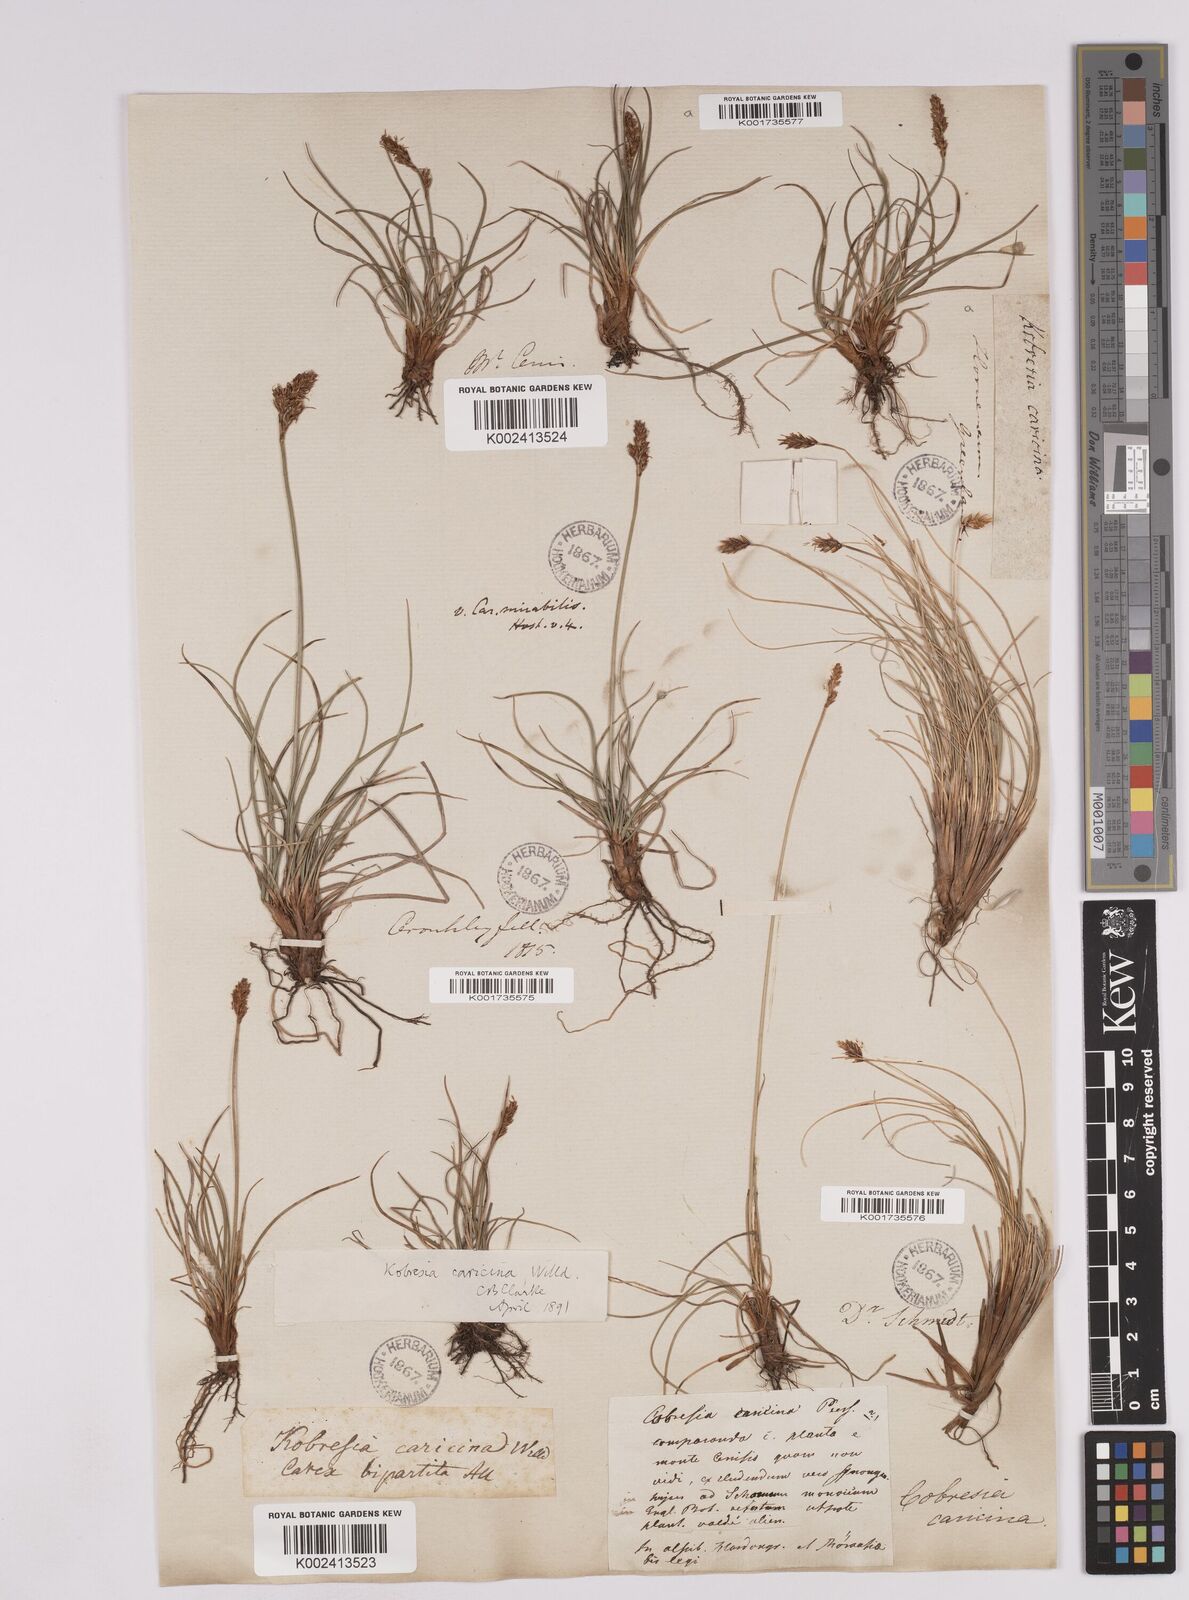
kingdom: Plantae
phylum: Tracheophyta
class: Liliopsida
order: Poales
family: Cyperaceae
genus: Carex
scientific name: Carex simpliciuscula
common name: Simple bog sedge
